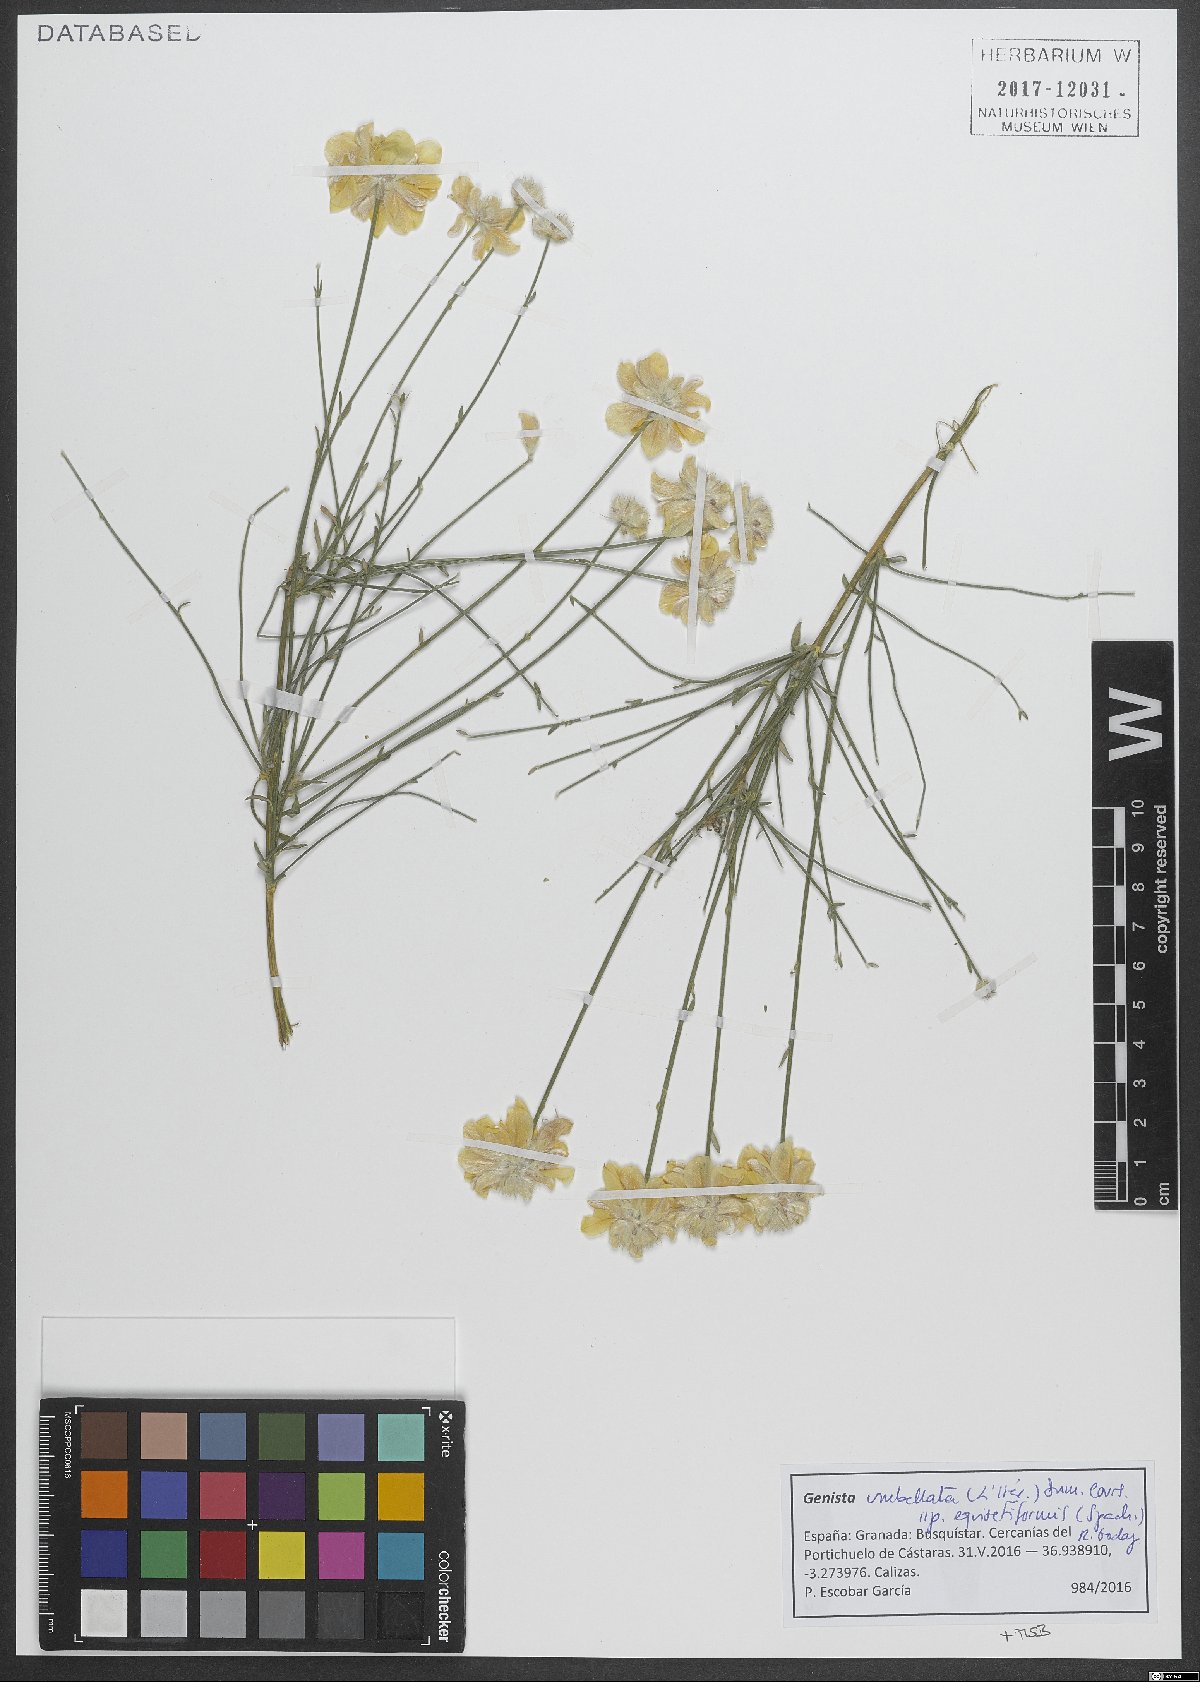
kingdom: Plantae
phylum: Tracheophyta
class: Magnoliopsida
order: Fabales
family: Fabaceae
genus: Genista
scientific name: Genista umbellata
